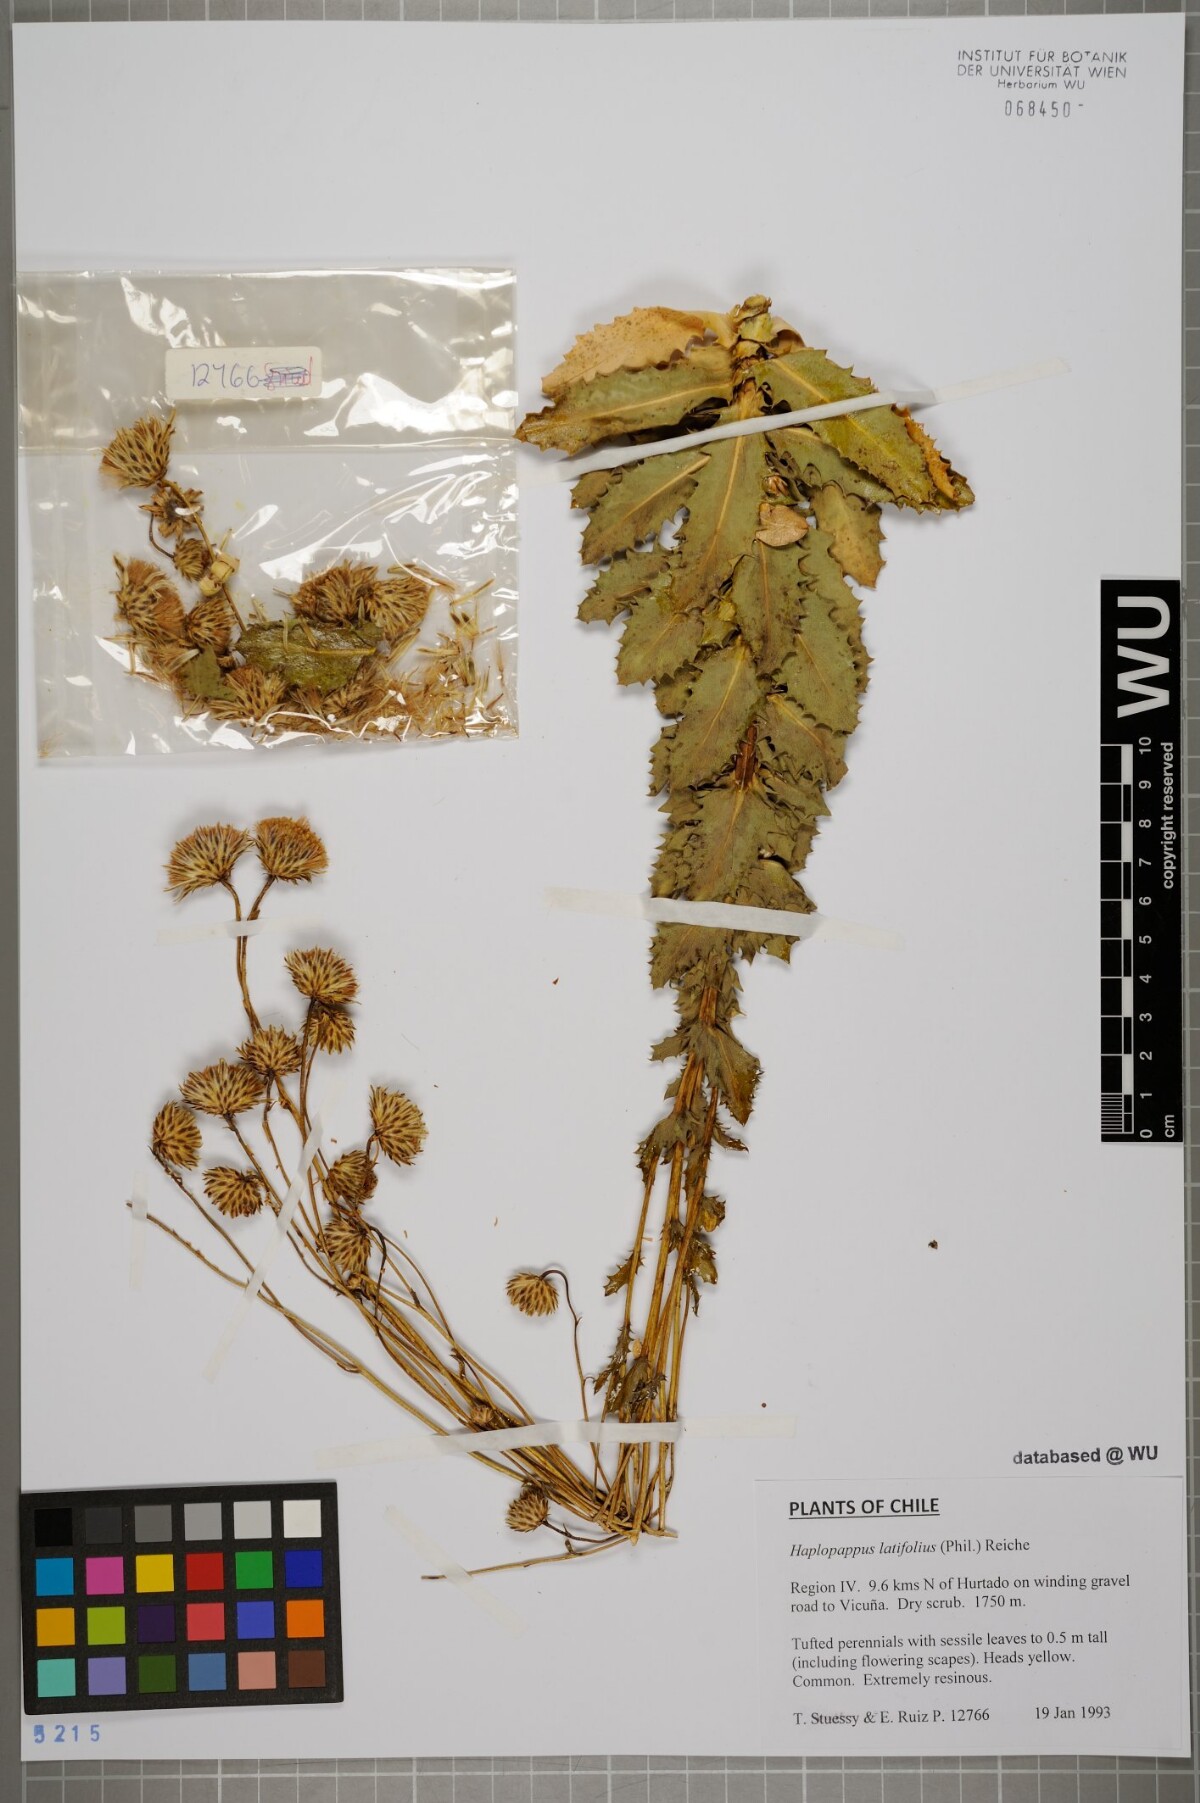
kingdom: Plantae
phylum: Tracheophyta
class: Magnoliopsida
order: Asterales
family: Asteraceae
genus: Haplopappus
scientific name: Haplopappus remyanus
